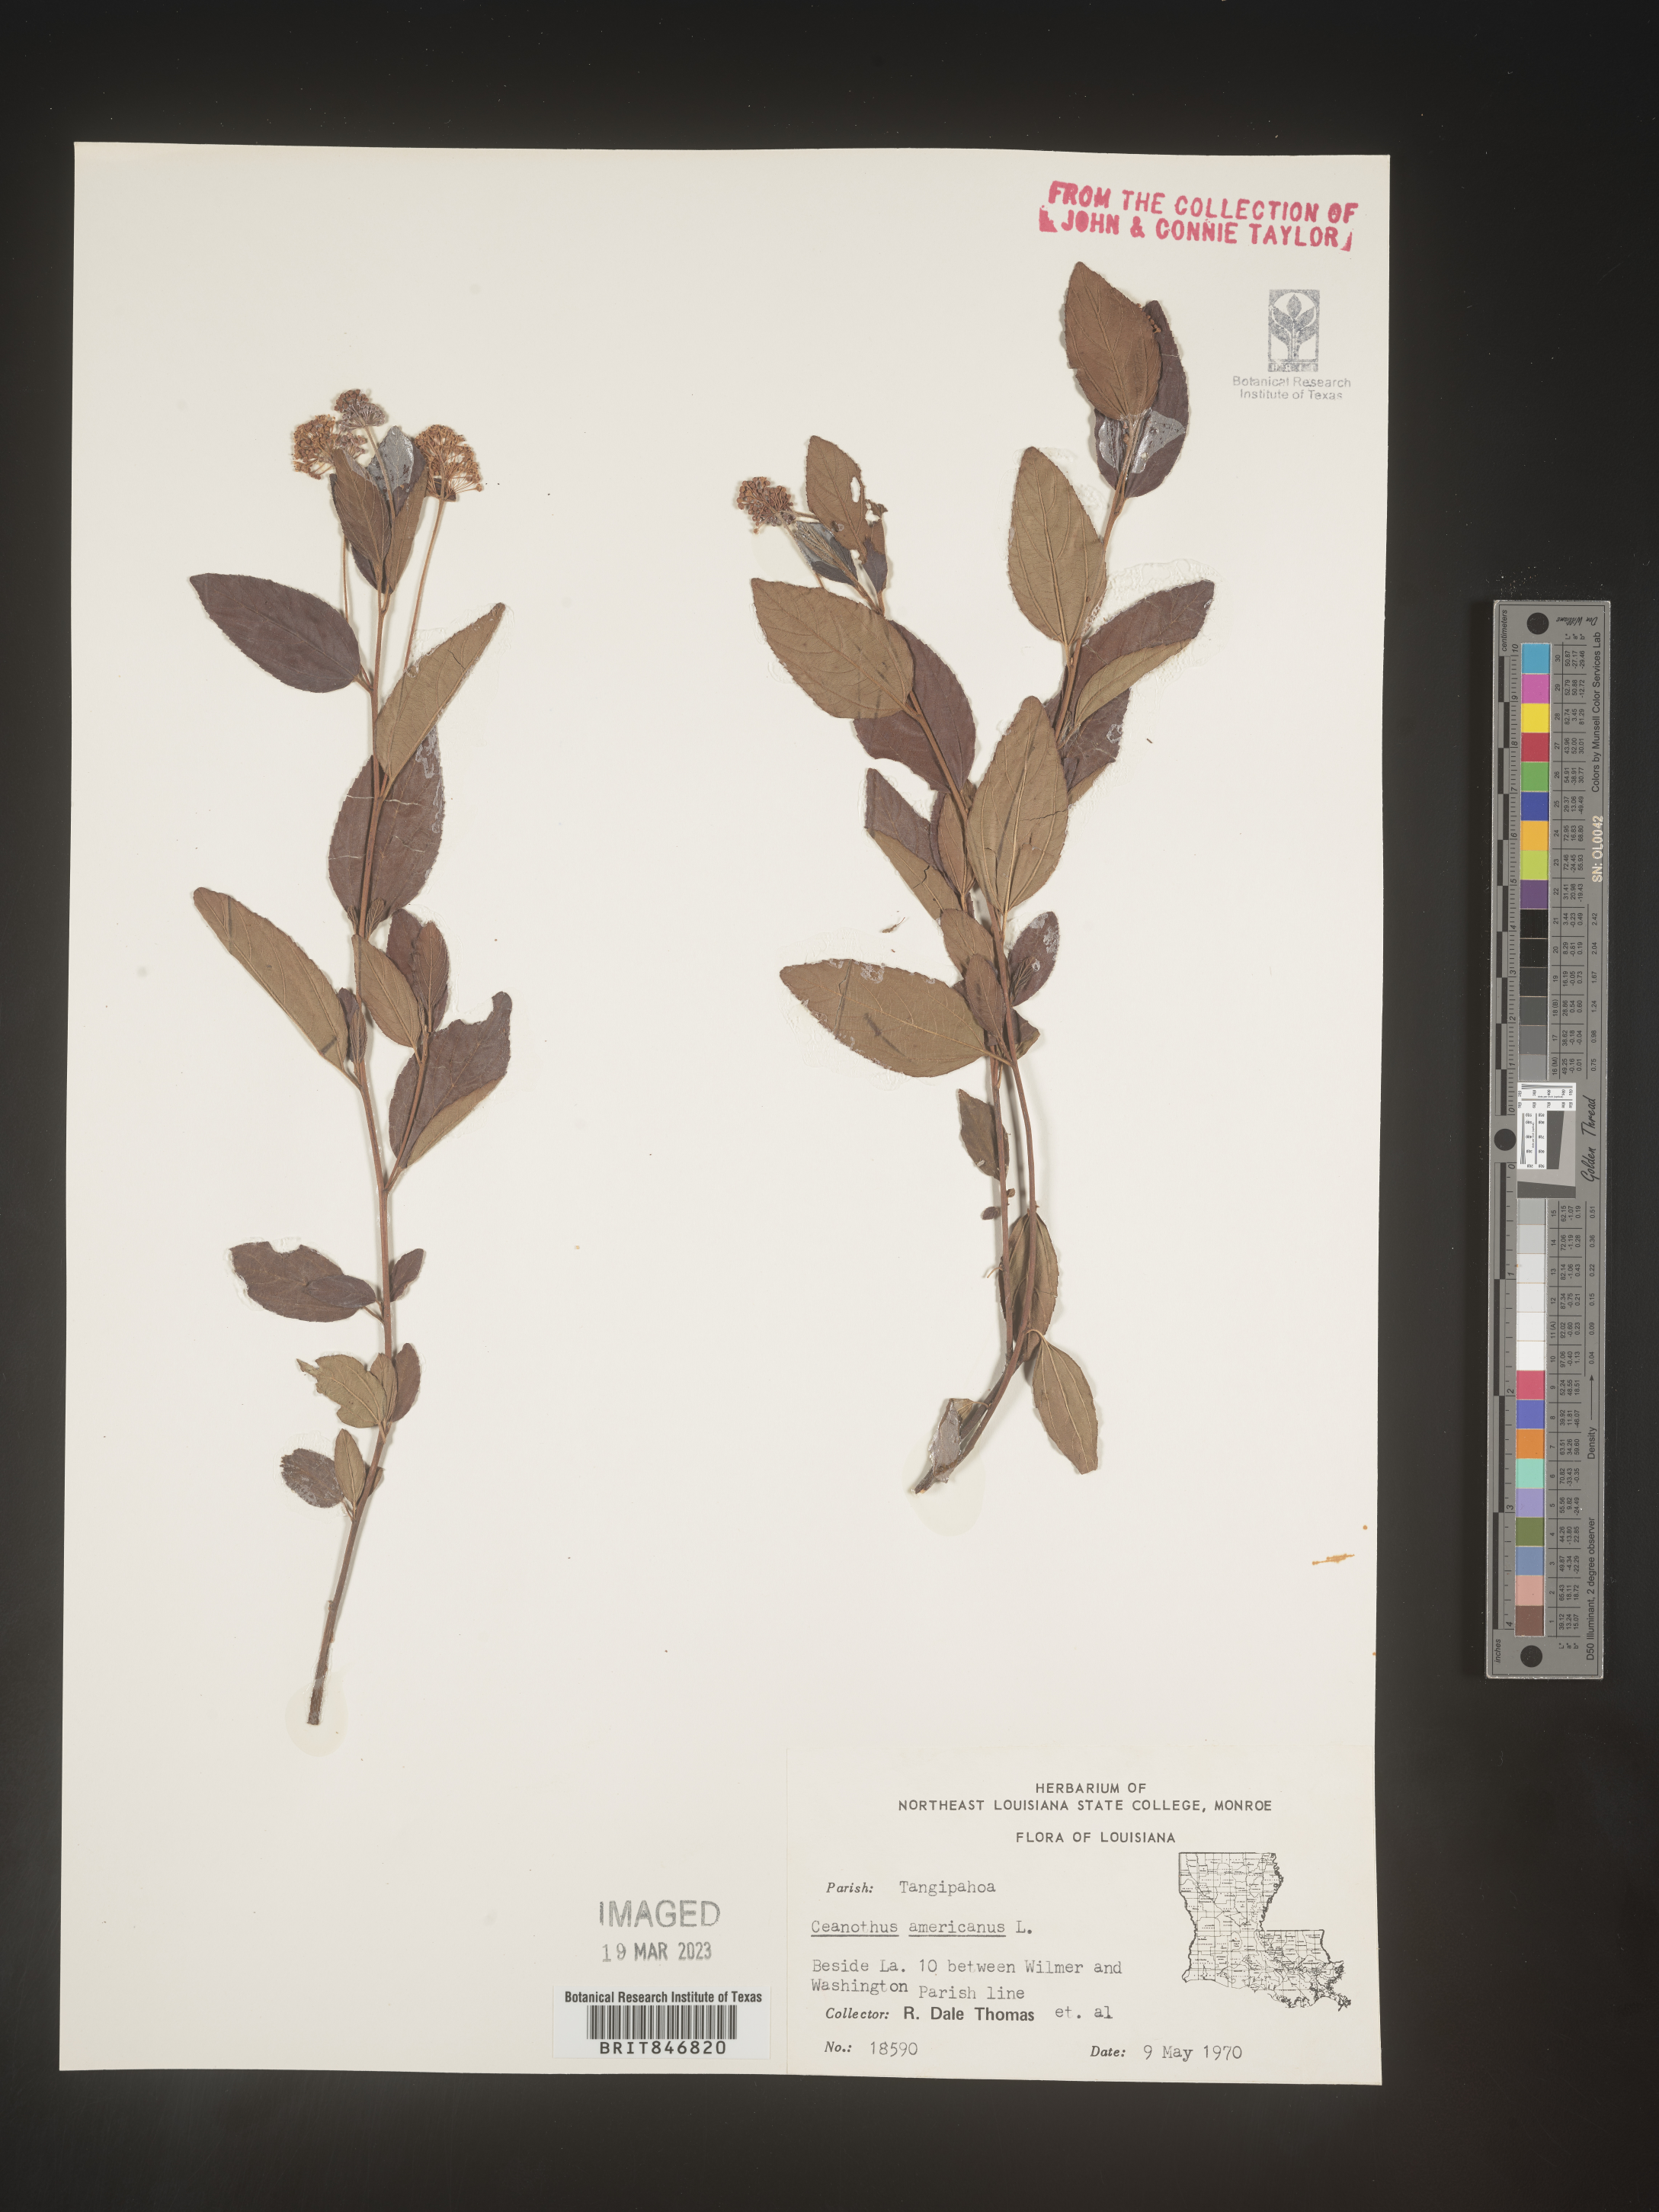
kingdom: Plantae
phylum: Tracheophyta
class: Magnoliopsida
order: Rosales
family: Rhamnaceae
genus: Ceanothus
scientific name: Ceanothus americanus
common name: Redroot
